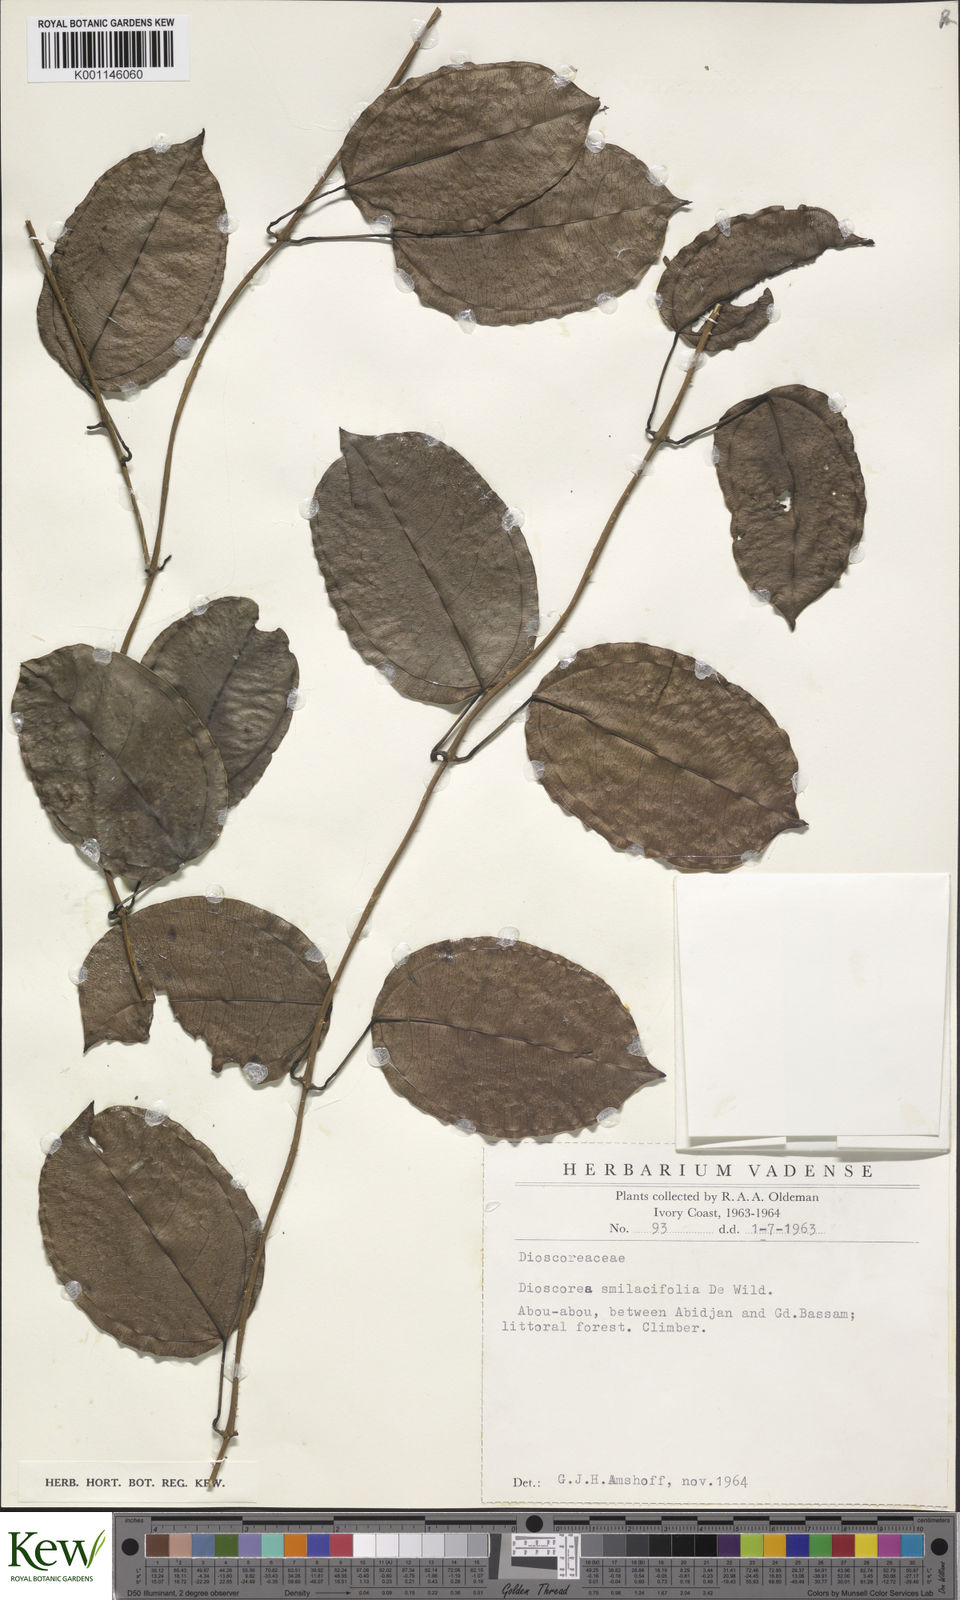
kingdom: Plantae
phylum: Tracheophyta
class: Liliopsida
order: Dioscoreales
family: Dioscoreaceae
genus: Dioscorea
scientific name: Dioscorea smilacifolia
